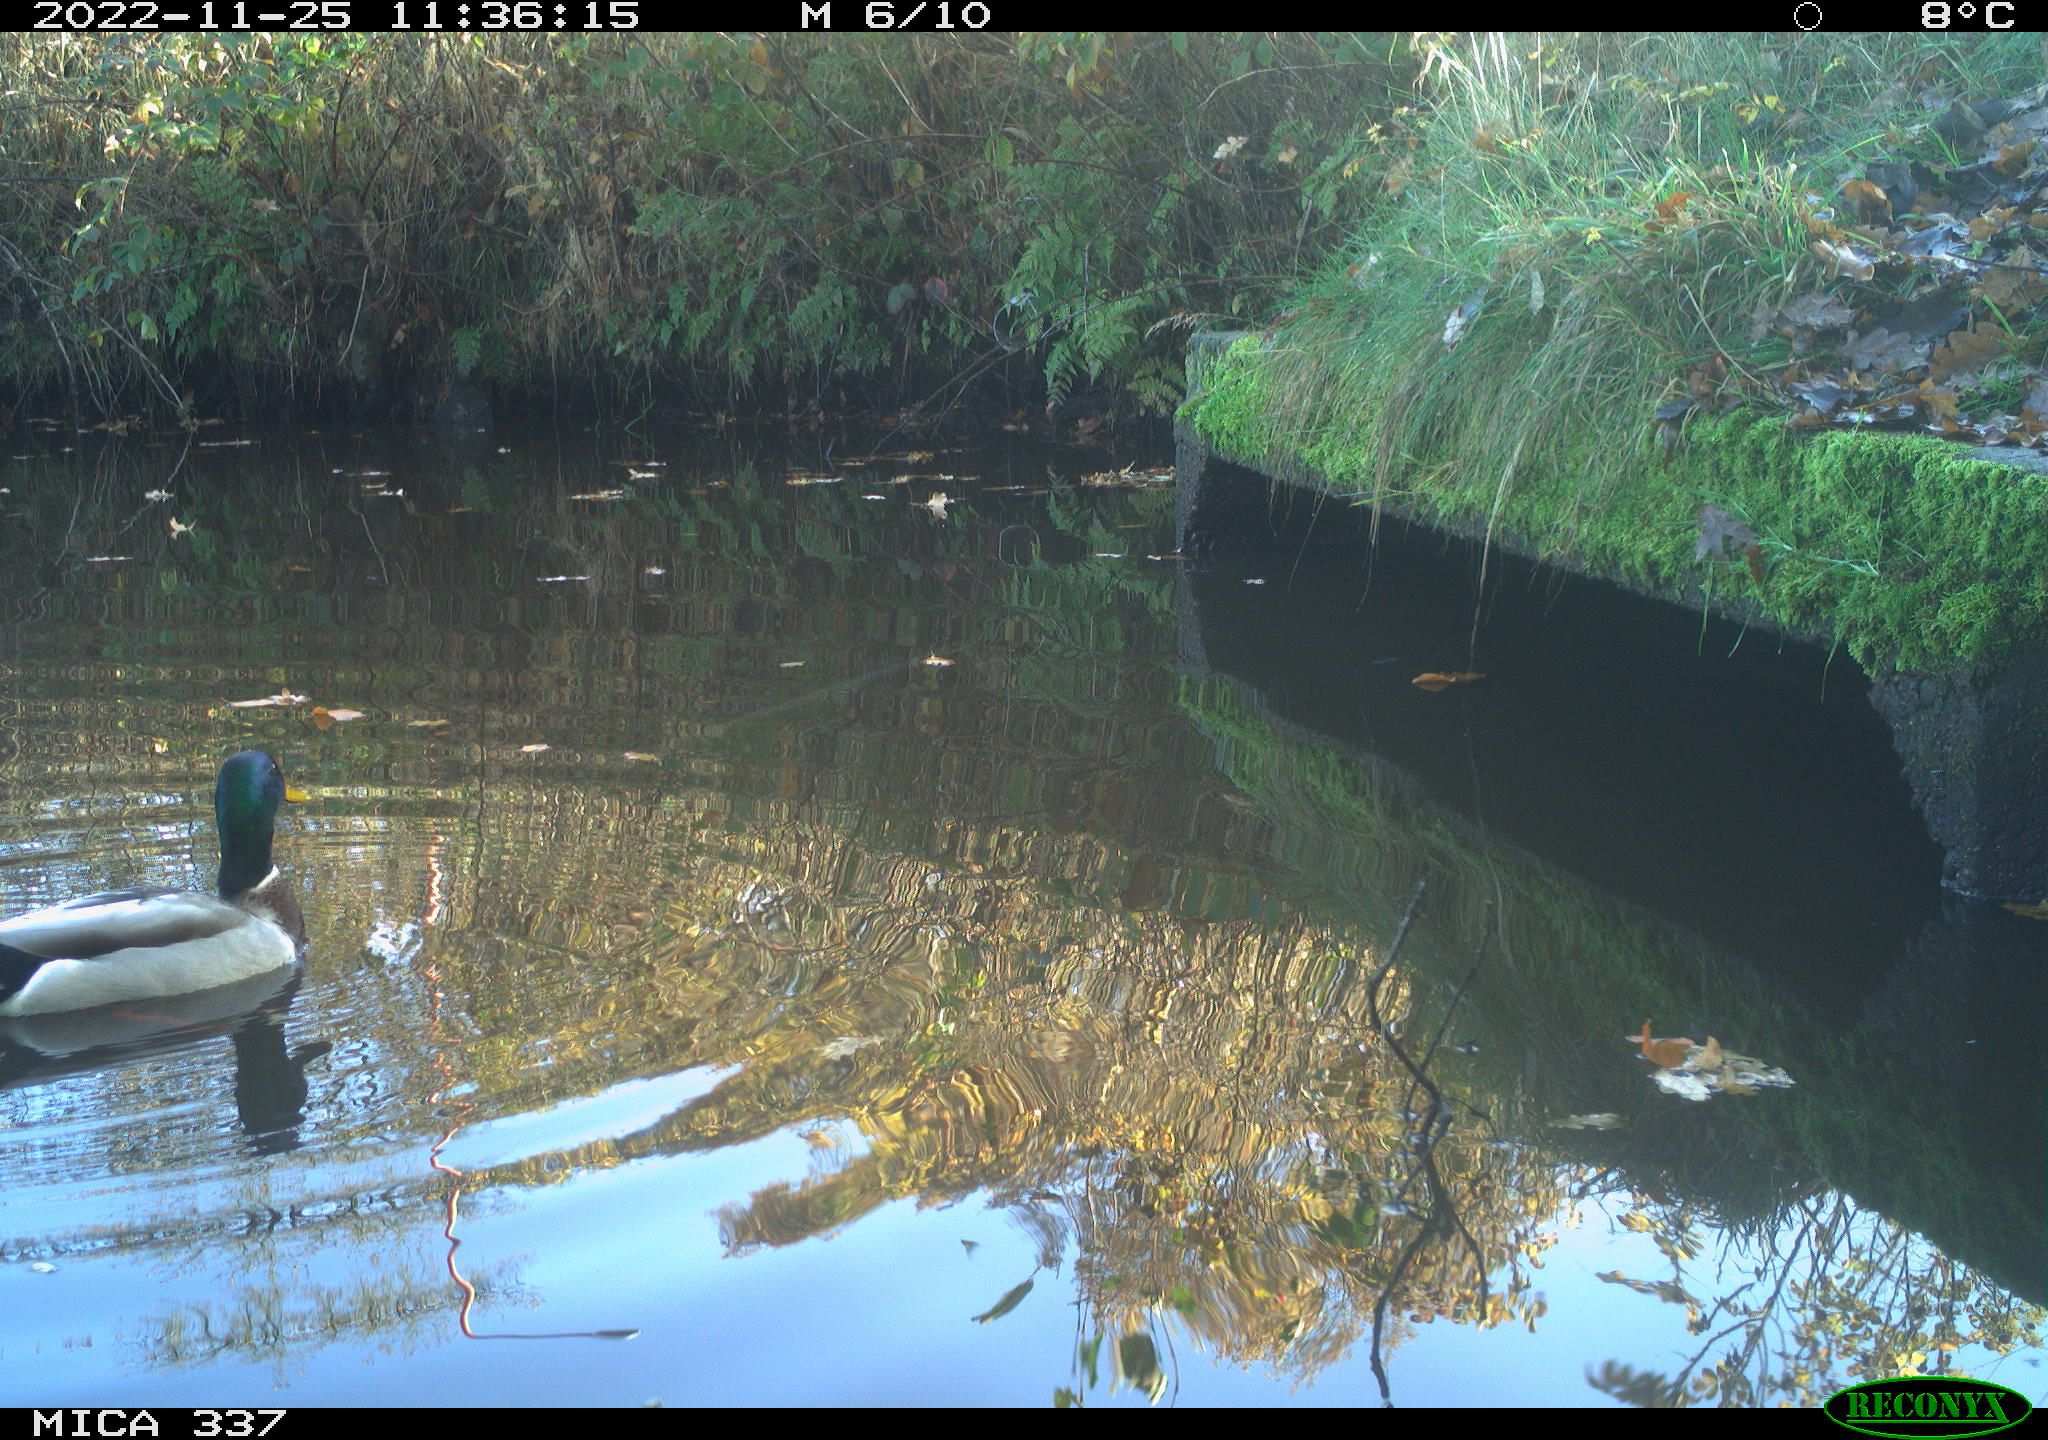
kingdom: Animalia
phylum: Chordata
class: Aves
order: Anseriformes
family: Anatidae
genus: Anas
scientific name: Anas
